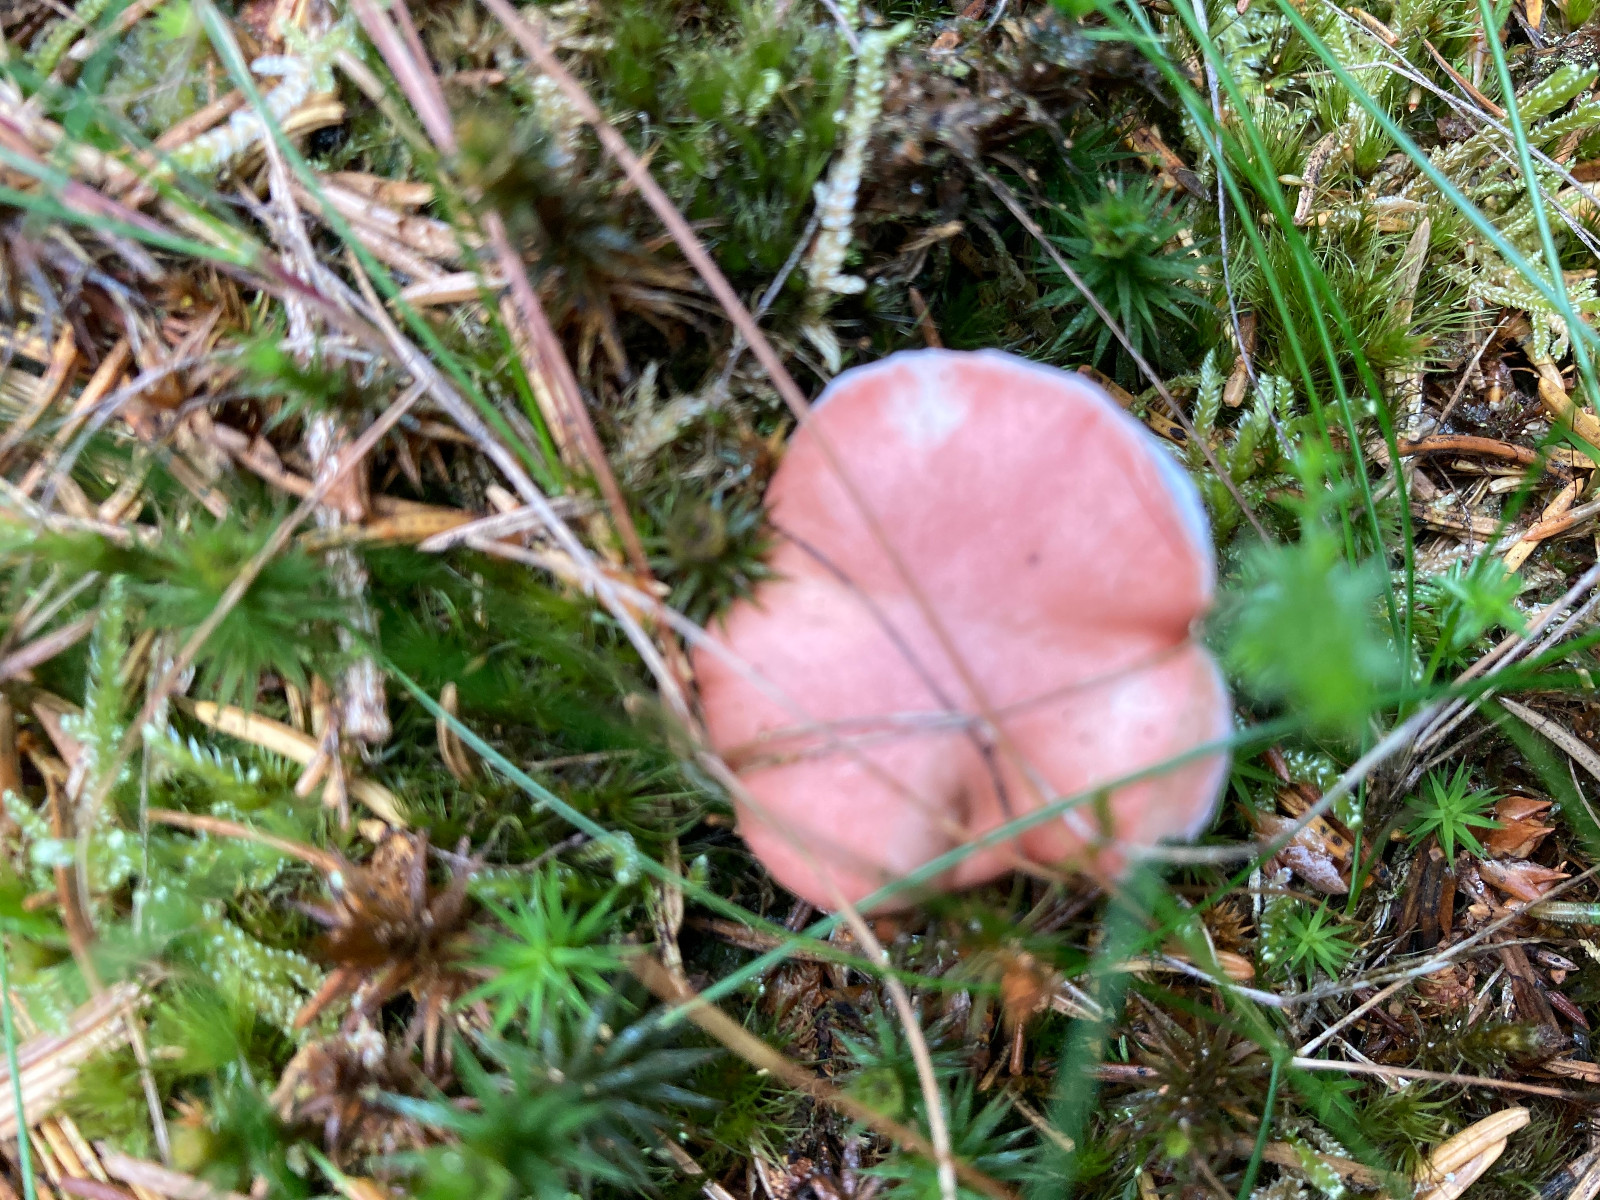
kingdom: Fungi
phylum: Basidiomycota
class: Agaricomycetes
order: Boletales
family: Gomphidiaceae
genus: Gomphidius
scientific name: Gomphidius roseus
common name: rosenrød slimslør
